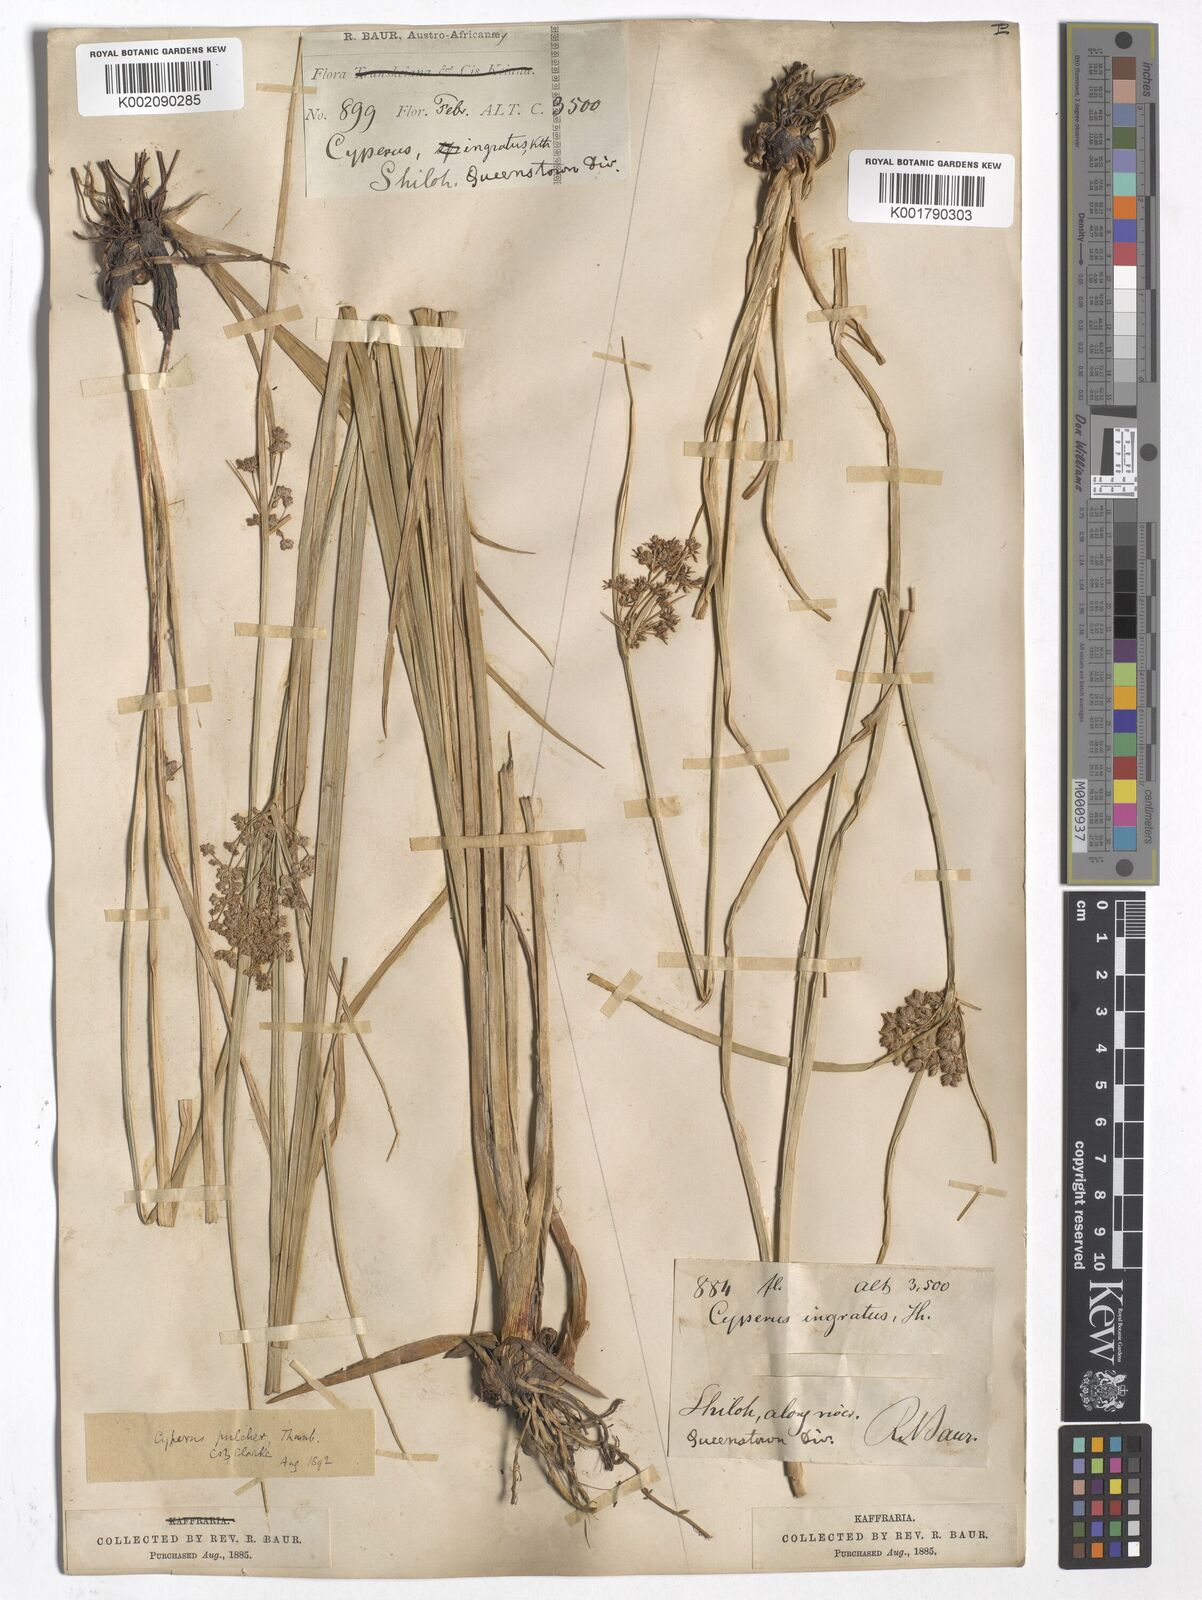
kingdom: Plantae
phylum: Tracheophyta
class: Liliopsida
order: Poales
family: Cyperaceae
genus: Cyperus
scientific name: Cyperus pulcher
